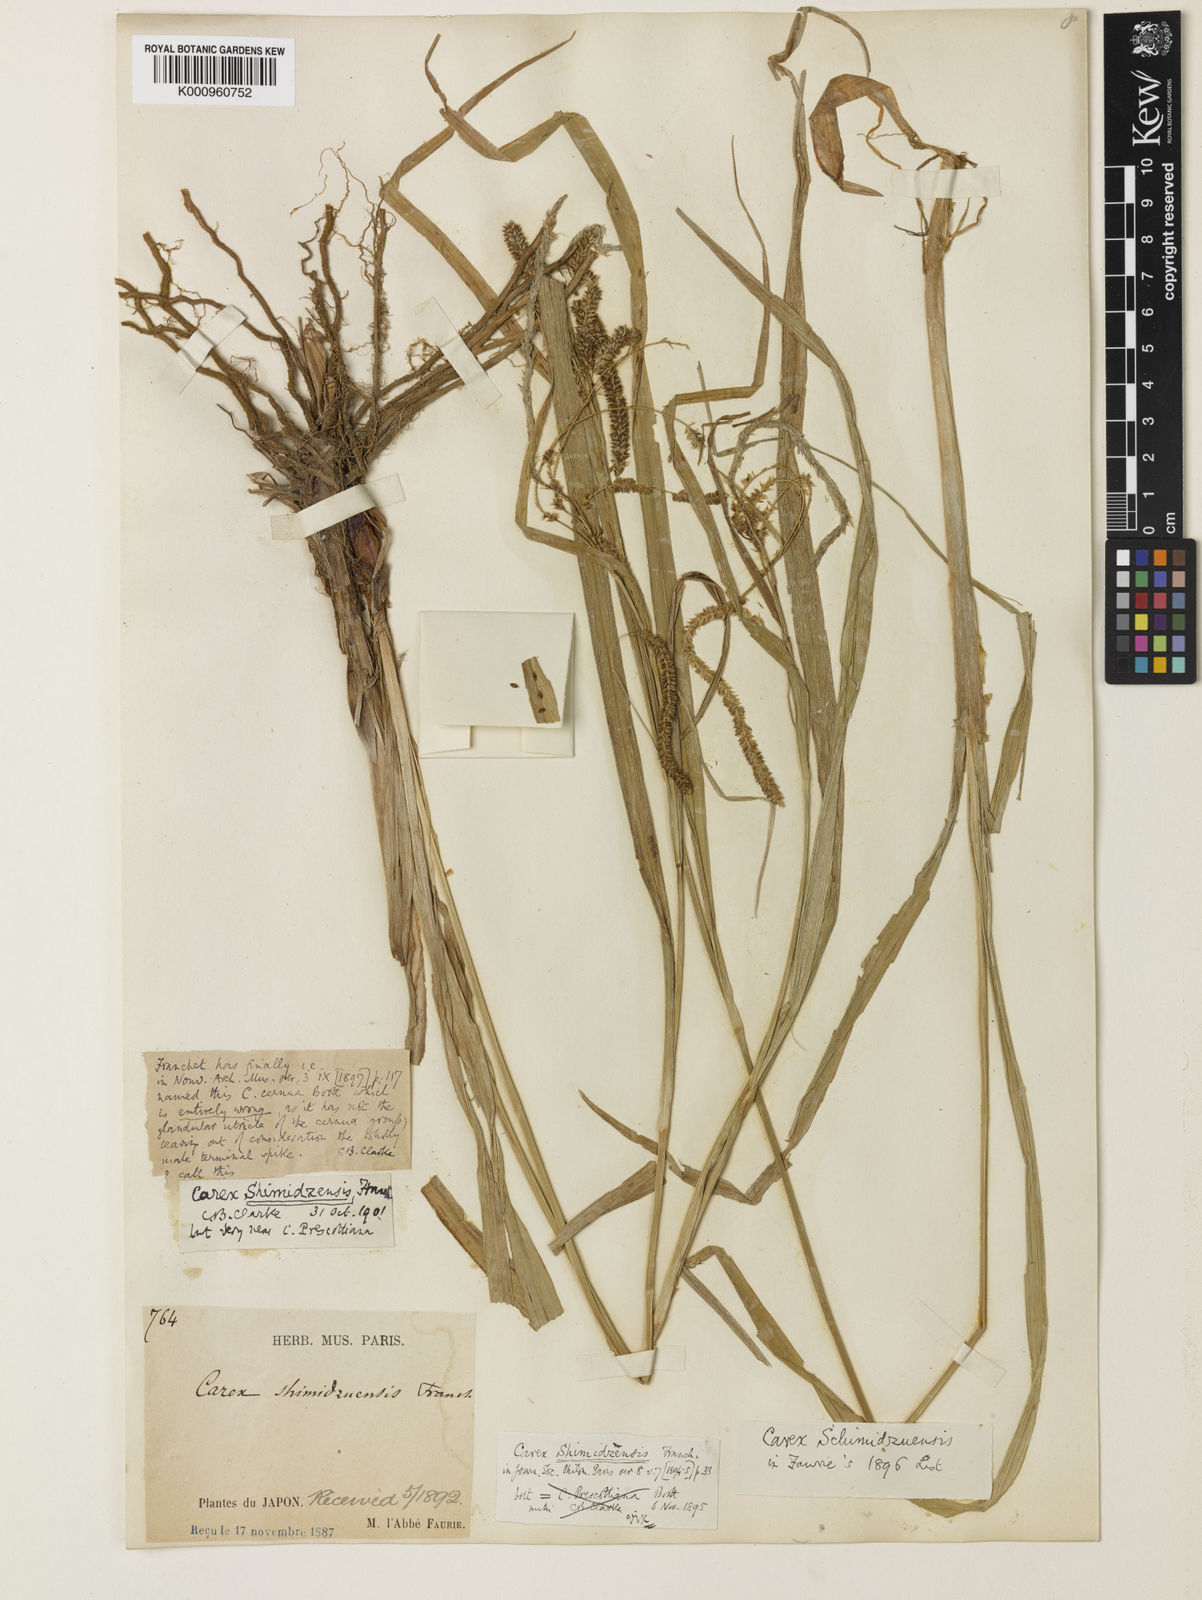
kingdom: Plantae
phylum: Tracheophyta
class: Liliopsida
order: Poales
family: Cyperaceae
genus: Carex
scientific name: Carex shimidzensis
